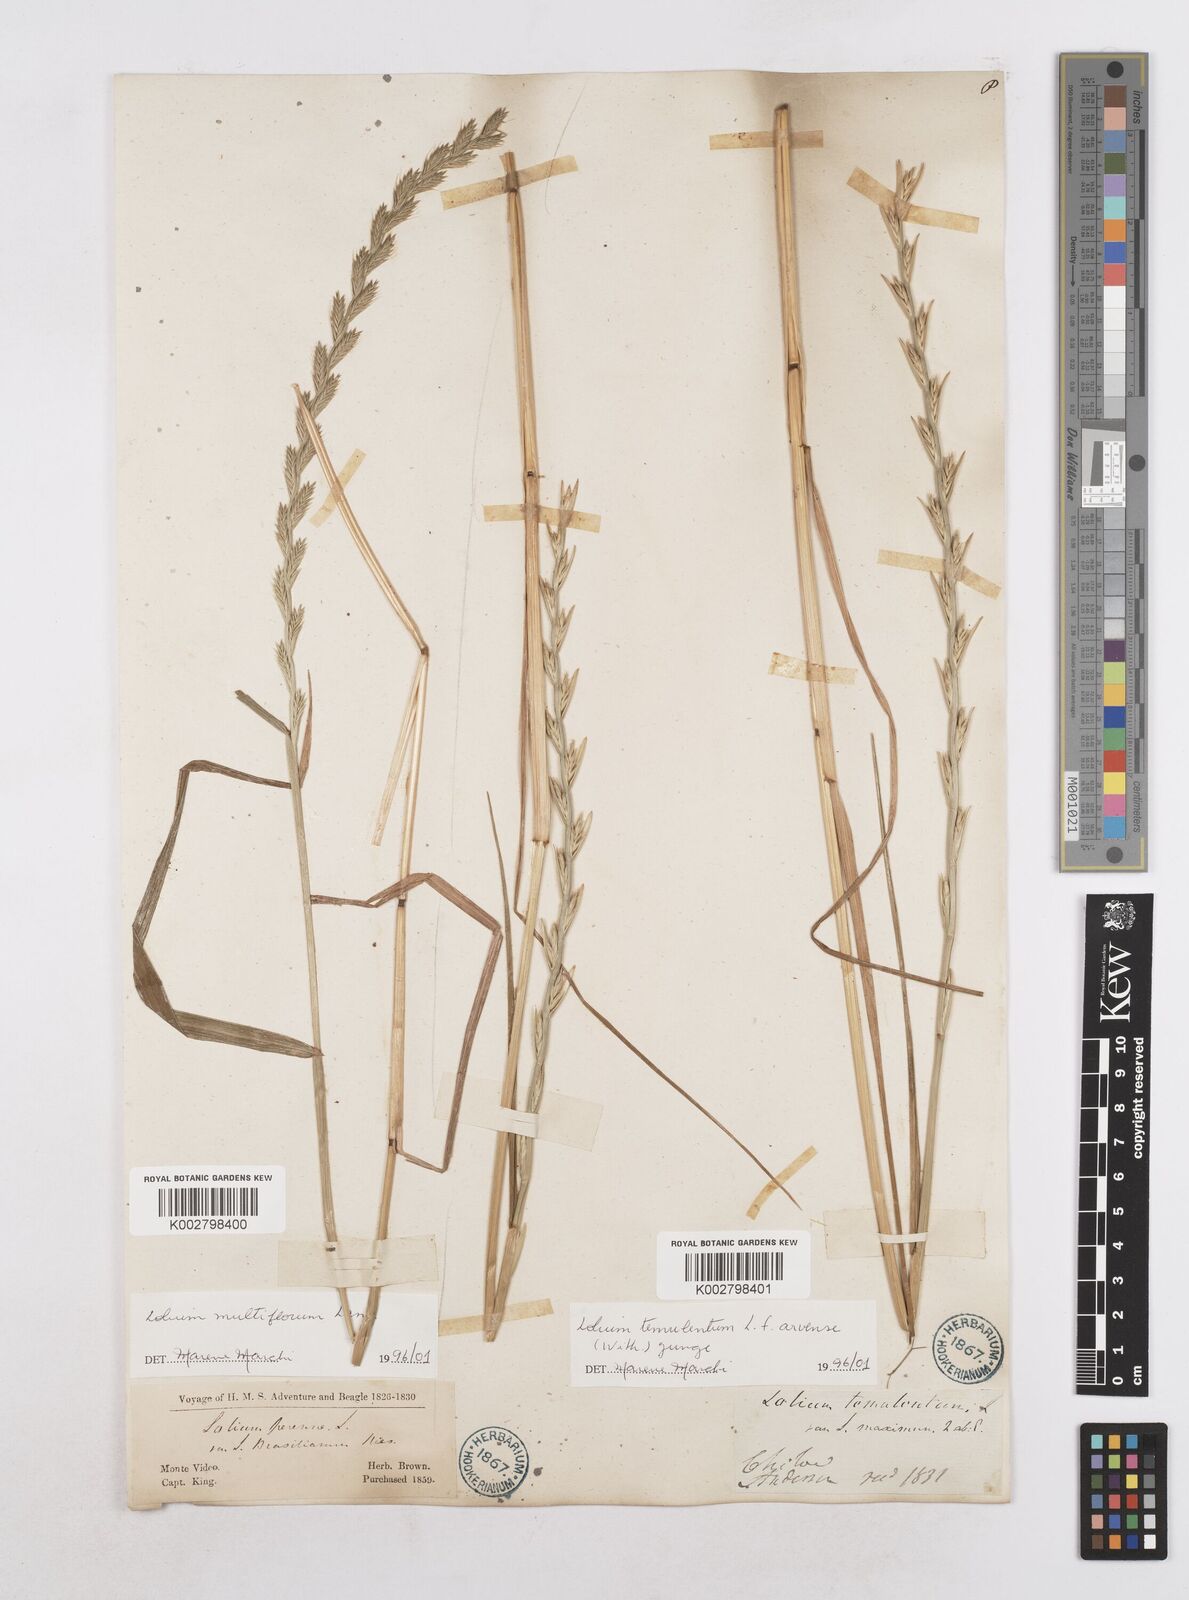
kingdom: Plantae
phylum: Tracheophyta
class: Liliopsida
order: Poales
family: Poaceae
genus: Lolium
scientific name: Lolium temulentum
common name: Darnel
